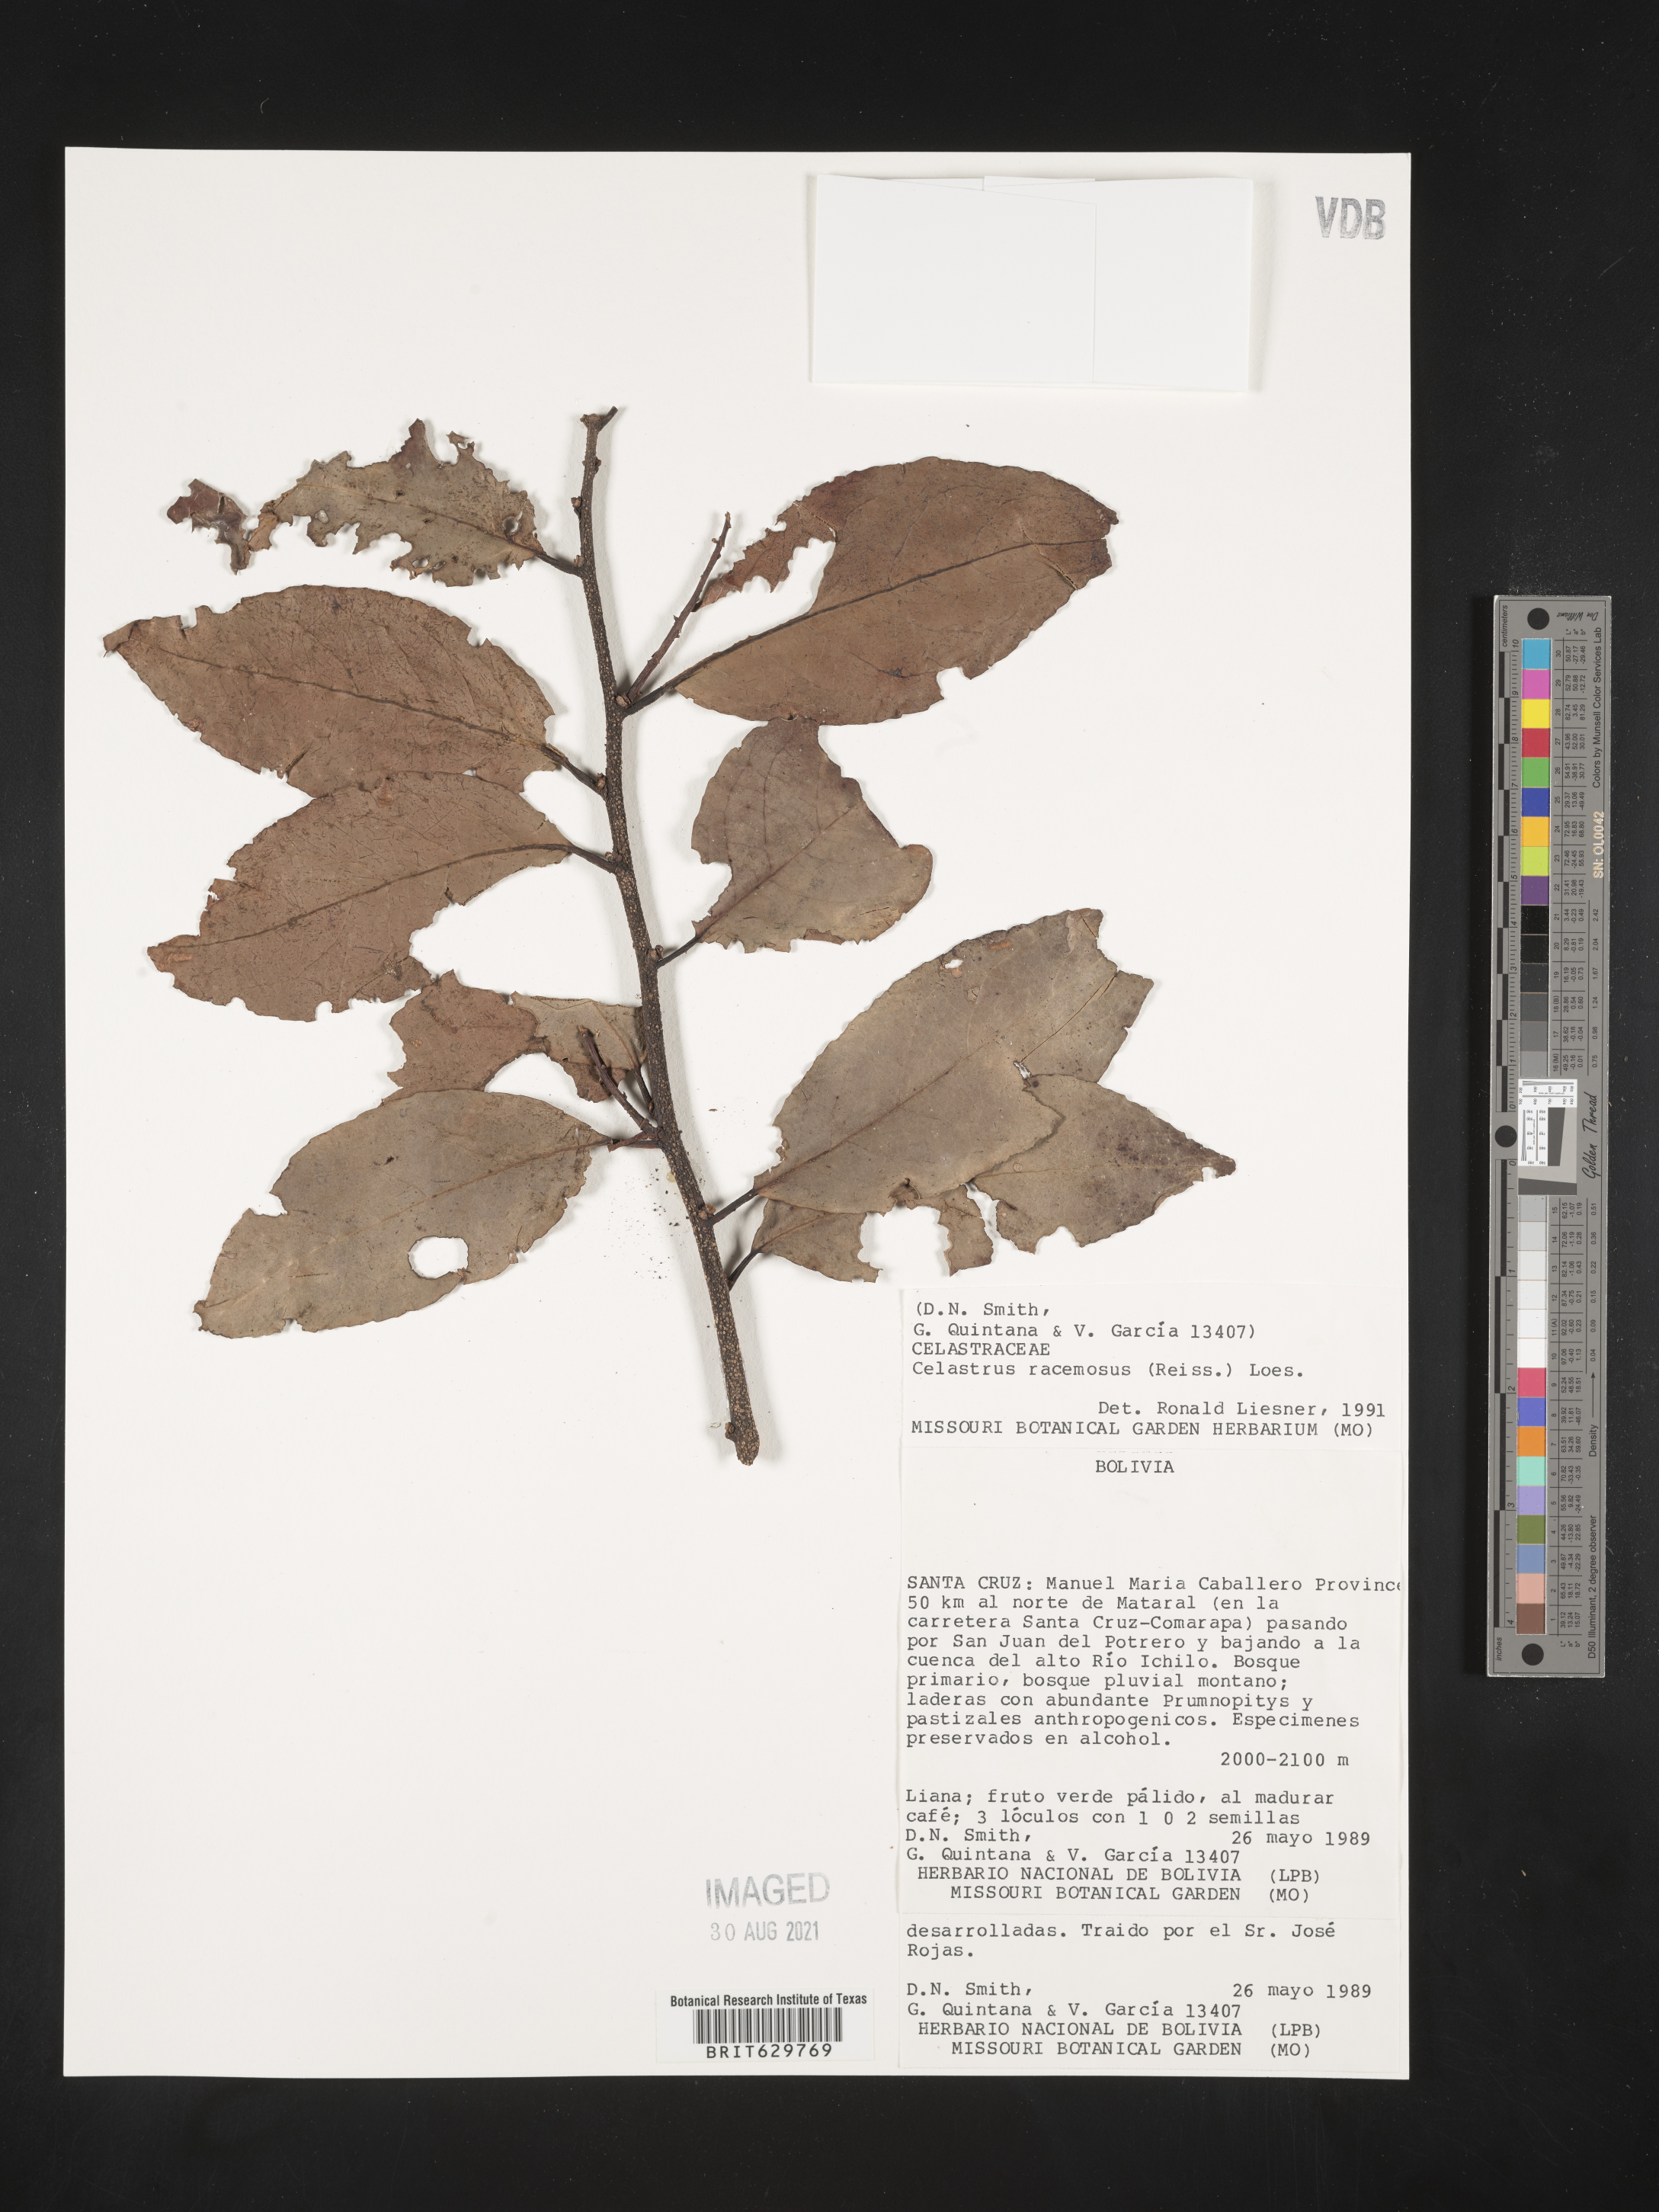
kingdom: Plantae
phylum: Tracheophyta
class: Magnoliopsida
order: Celastrales
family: Celastraceae
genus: Celastrus
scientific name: Celastrus racemosus
